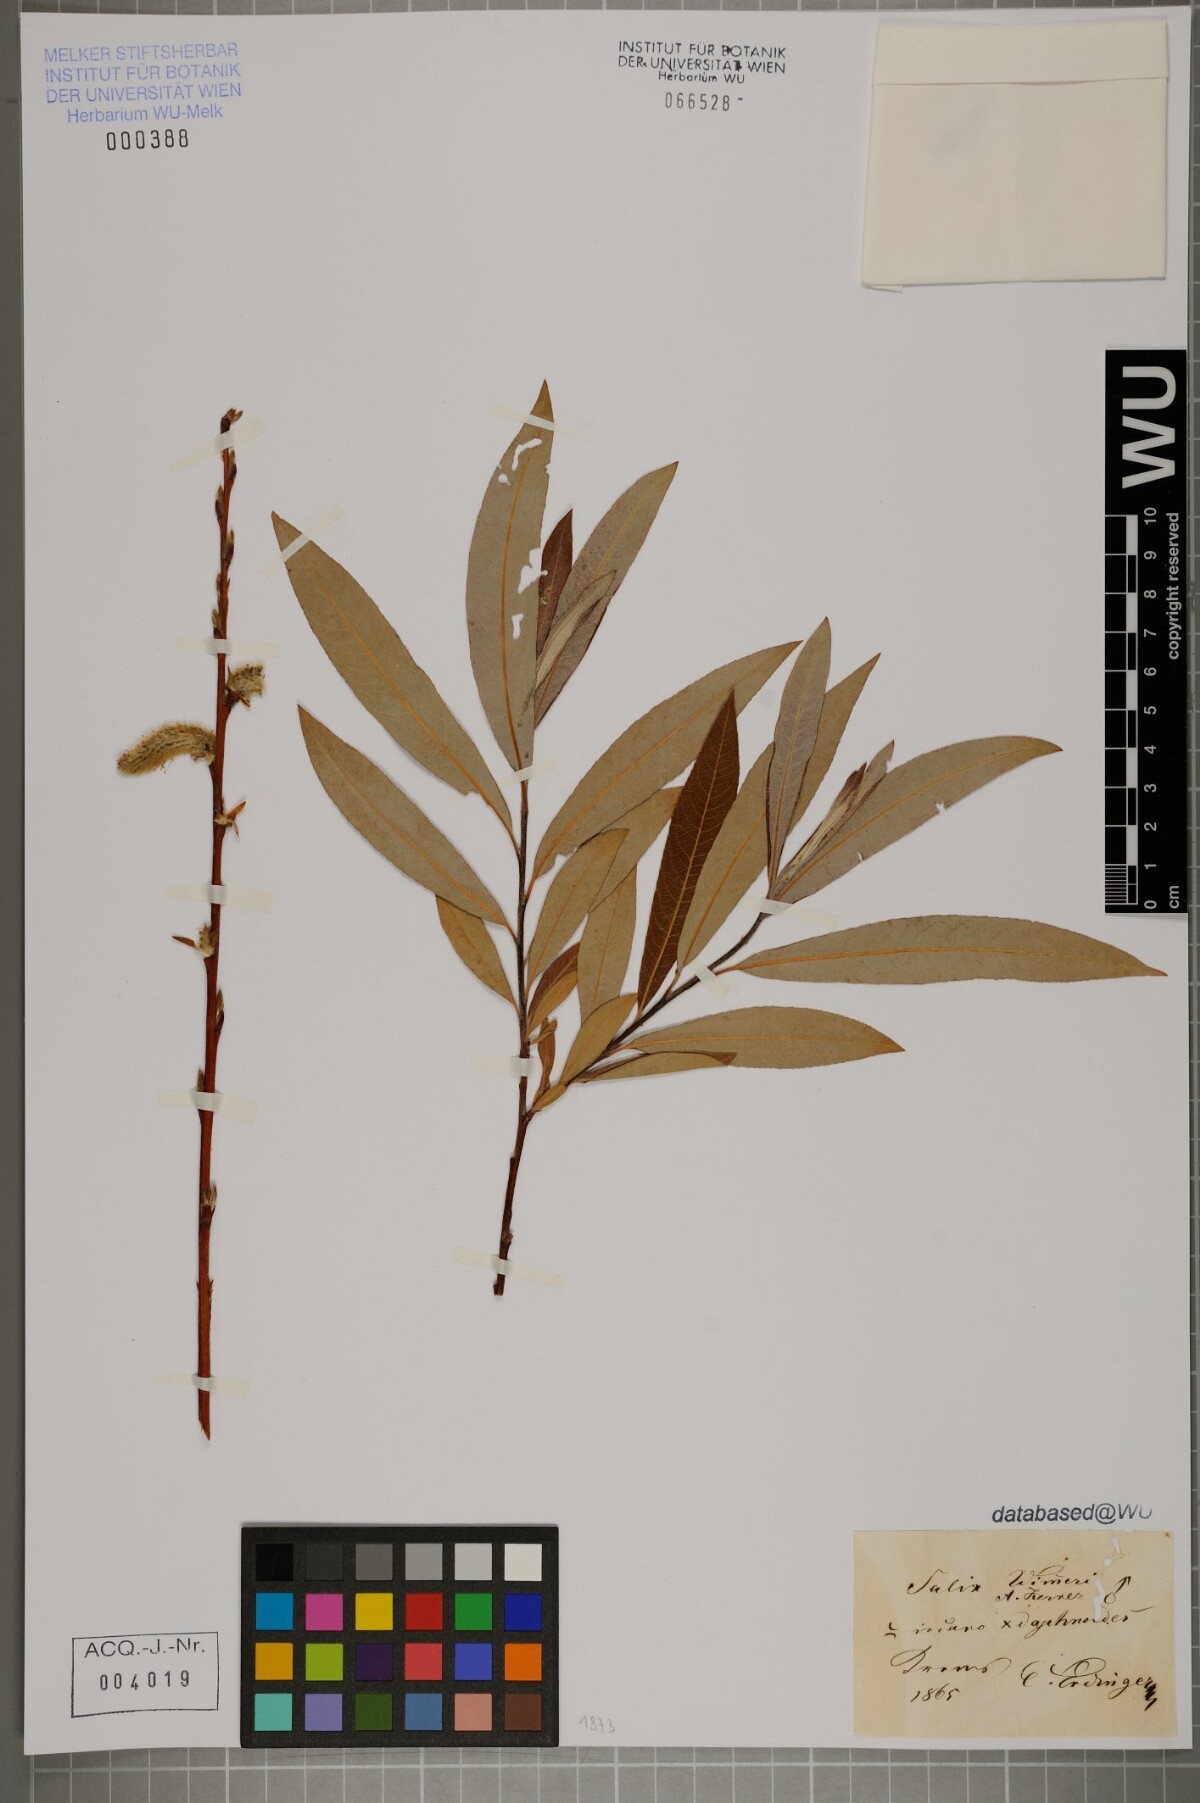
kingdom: Plantae
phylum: Tracheophyta
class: Magnoliopsida
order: Malpighiales
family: Salicaceae
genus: Salix
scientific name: Salix reuteri
